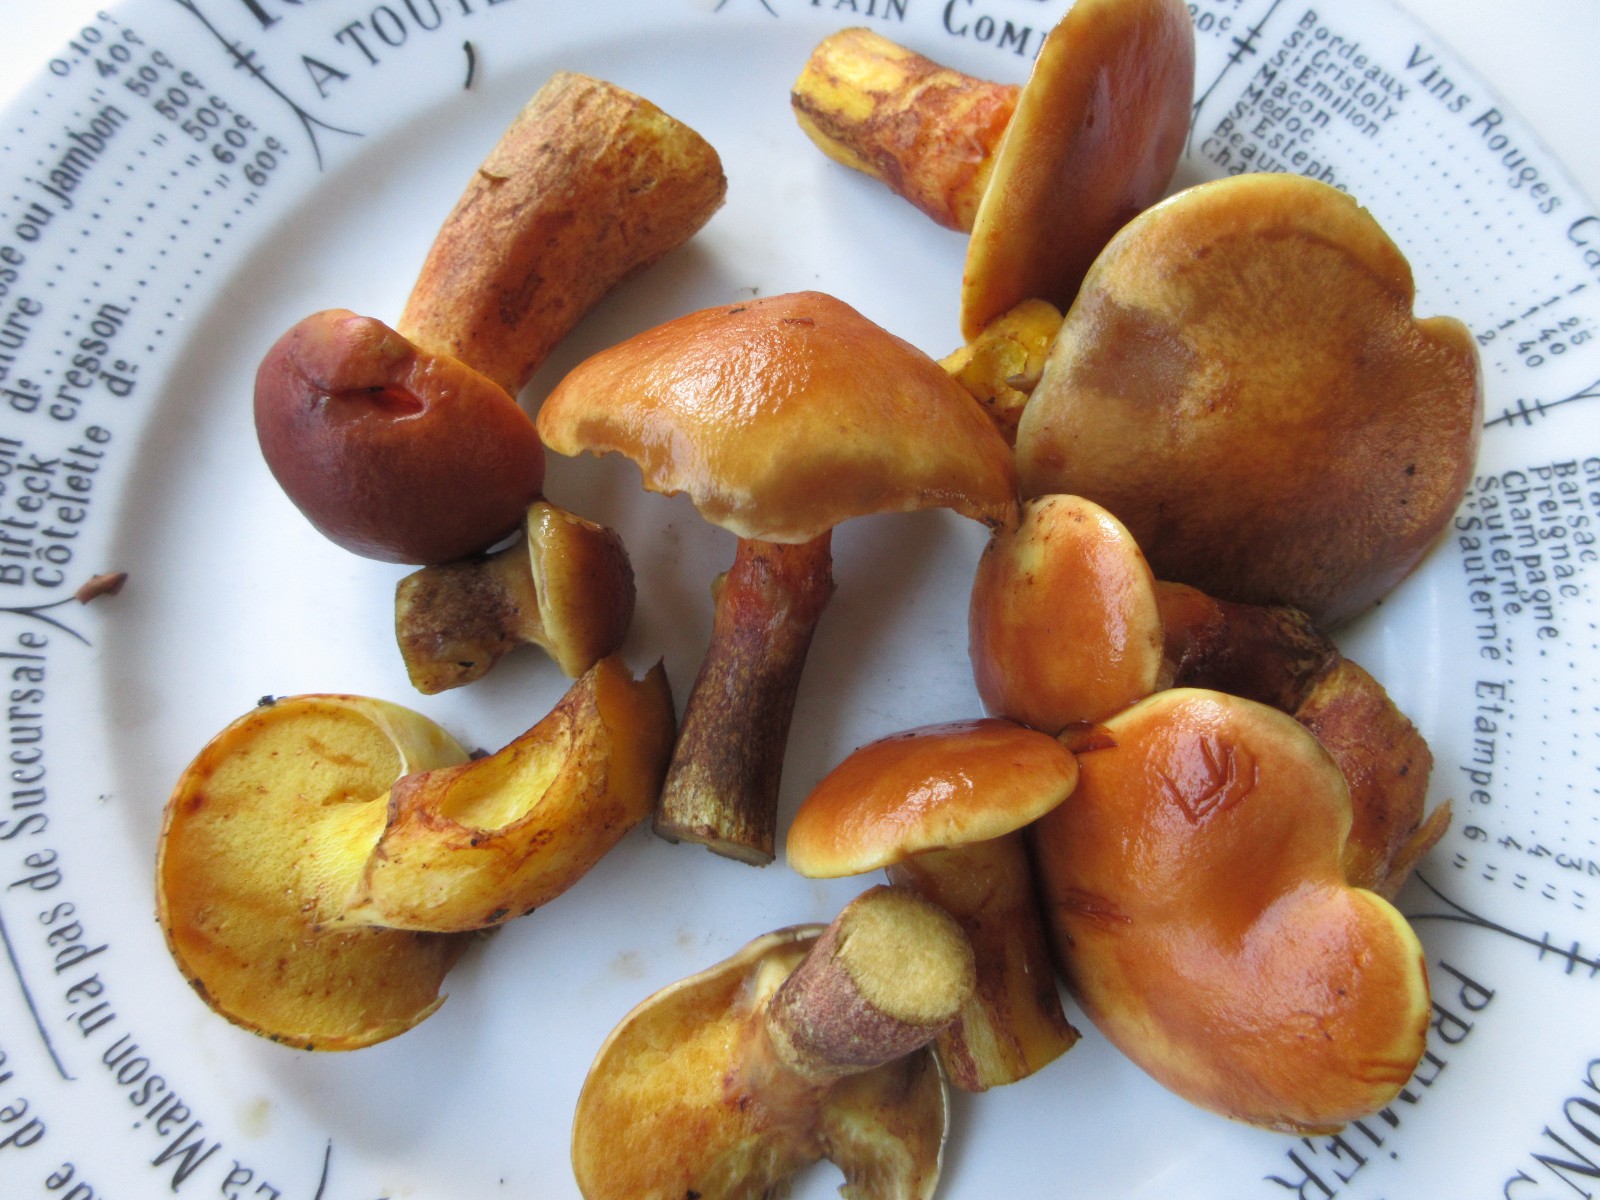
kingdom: Fungi
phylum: Basidiomycota
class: Agaricomycetes
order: Boletales
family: Suillaceae
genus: Suillus
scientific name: Suillus grevillei
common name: lærke-slimrørhat
